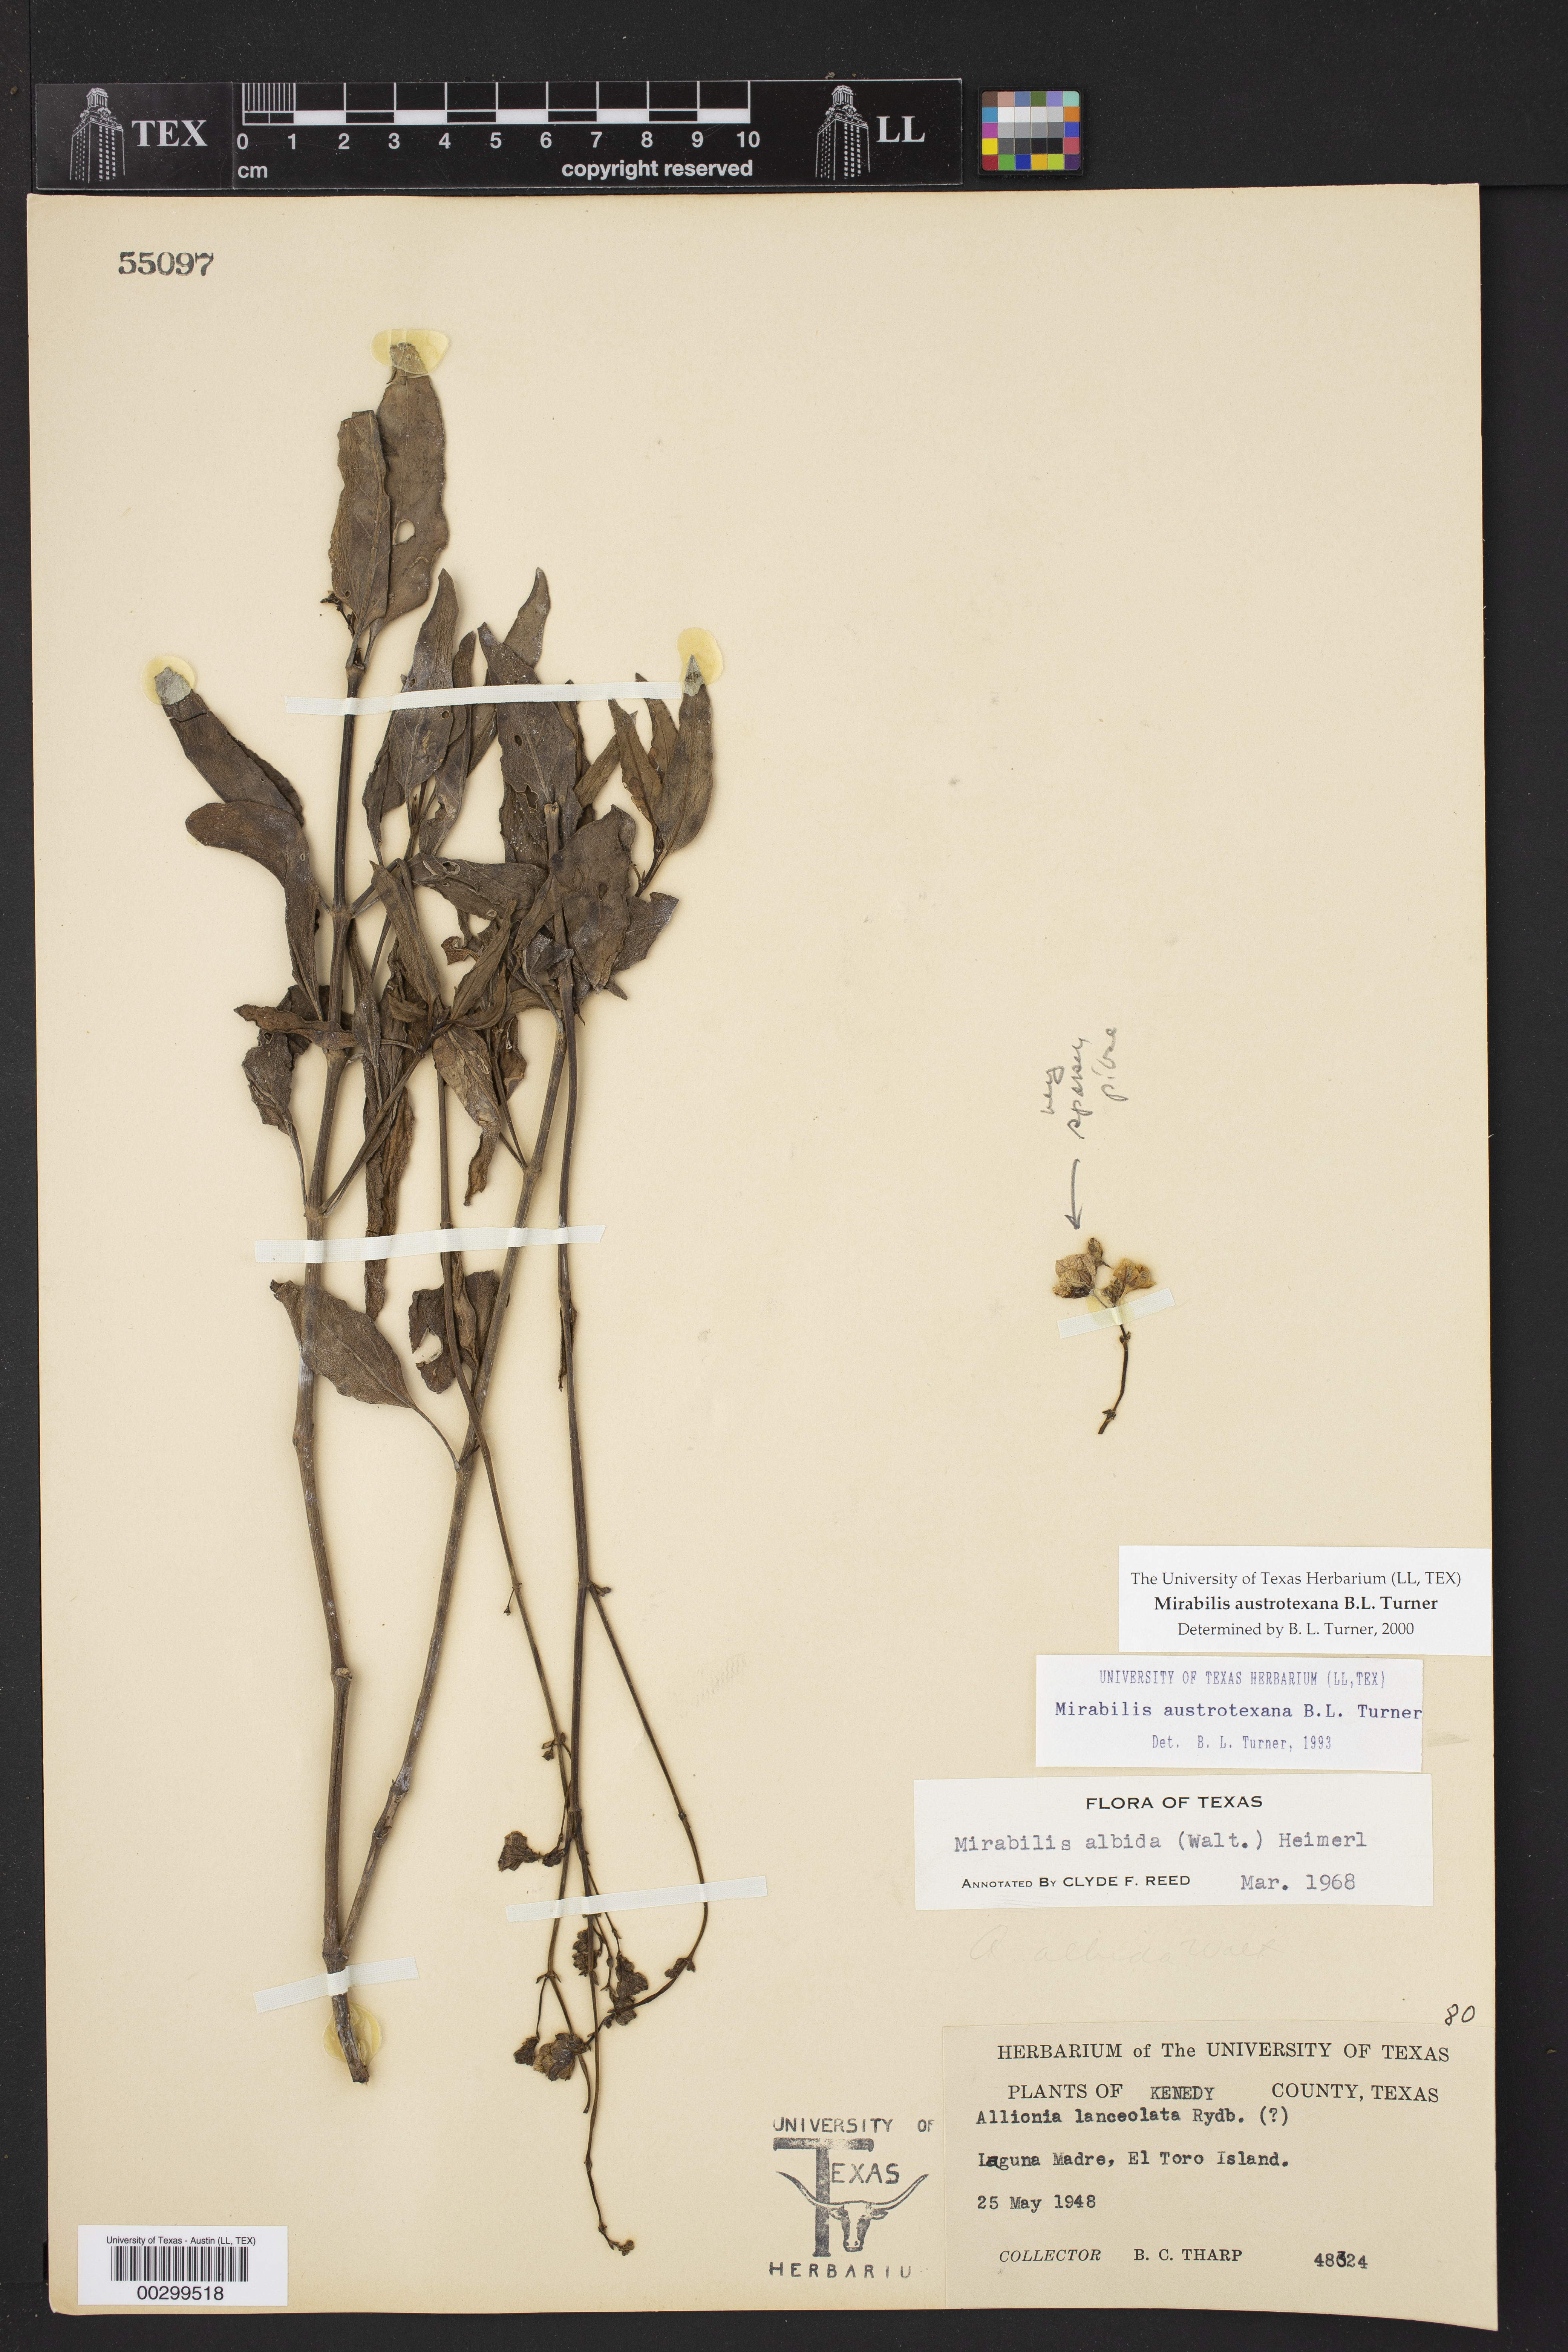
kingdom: Plantae
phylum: Tracheophyta
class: Magnoliopsida
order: Caryophyllales
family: Nyctaginaceae
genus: Mirabilis
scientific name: Mirabilis austrotexana
